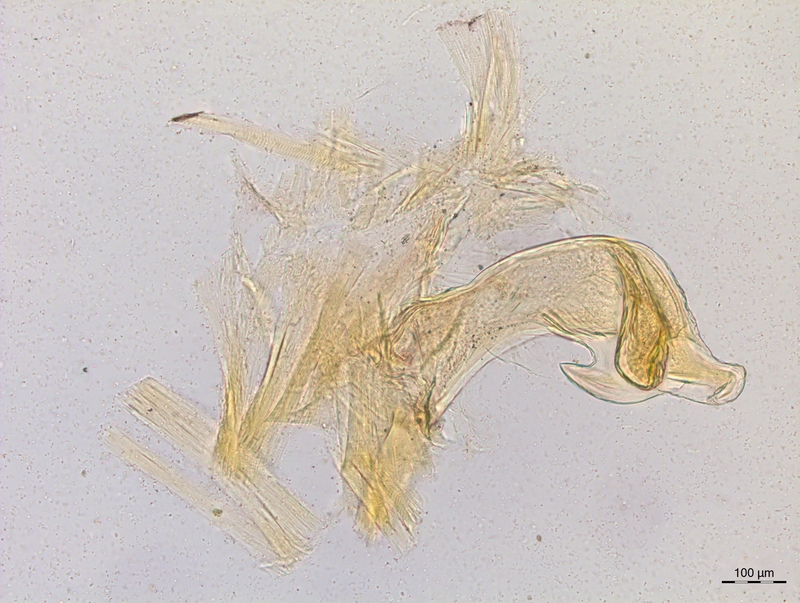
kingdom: Animalia
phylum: Arthropoda
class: Diplopoda
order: Chordeumatida
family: Craspedosomatidae
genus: Craspedosoma
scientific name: Craspedosoma rawlinsii
